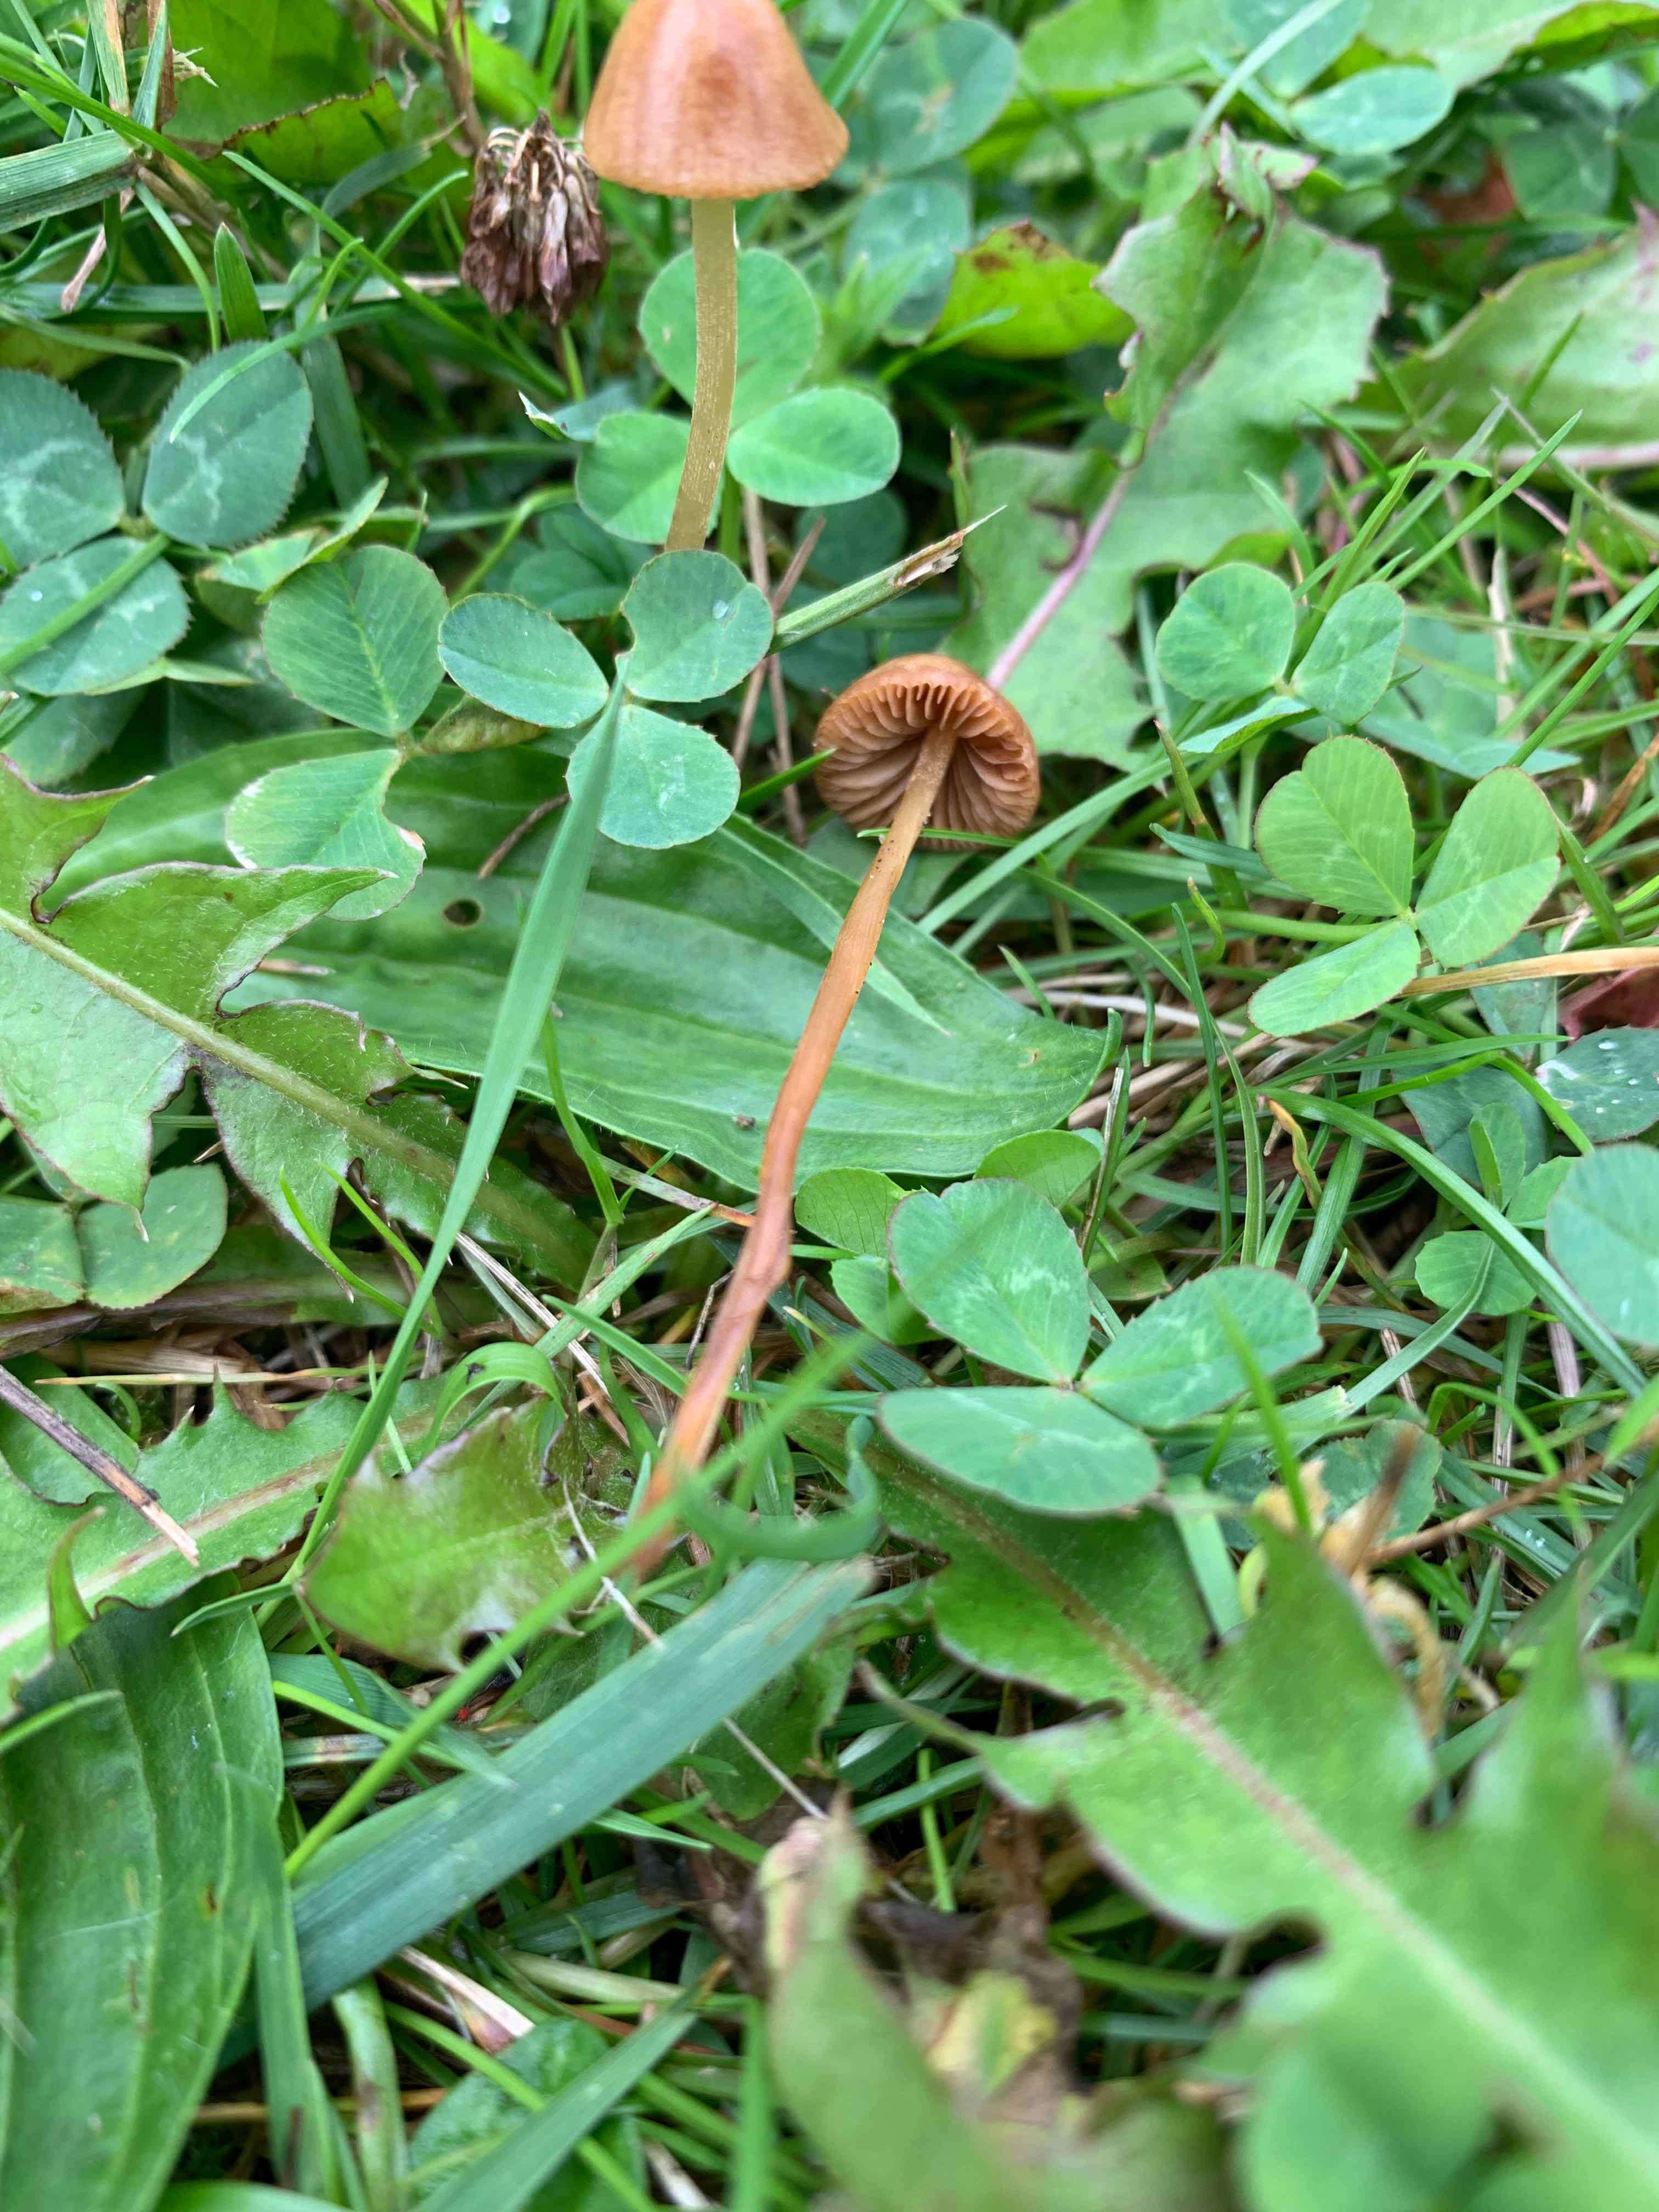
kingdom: Fungi
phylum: Basidiomycota
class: Agaricomycetes
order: Agaricales
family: Bolbitiaceae
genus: Conocybe
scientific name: Conocybe
